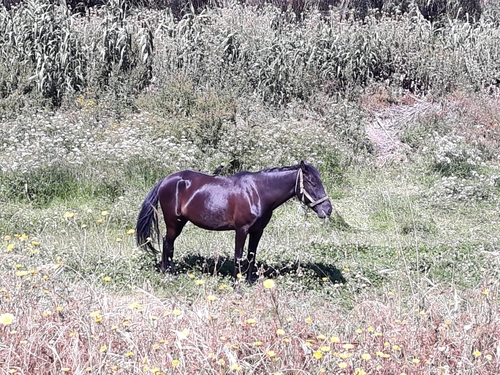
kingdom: Animalia
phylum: Chordata
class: Aves
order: Passeriformes
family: Sturnidae
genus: Acridotheres
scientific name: Acridotheres cristatellus
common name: Crested myna
